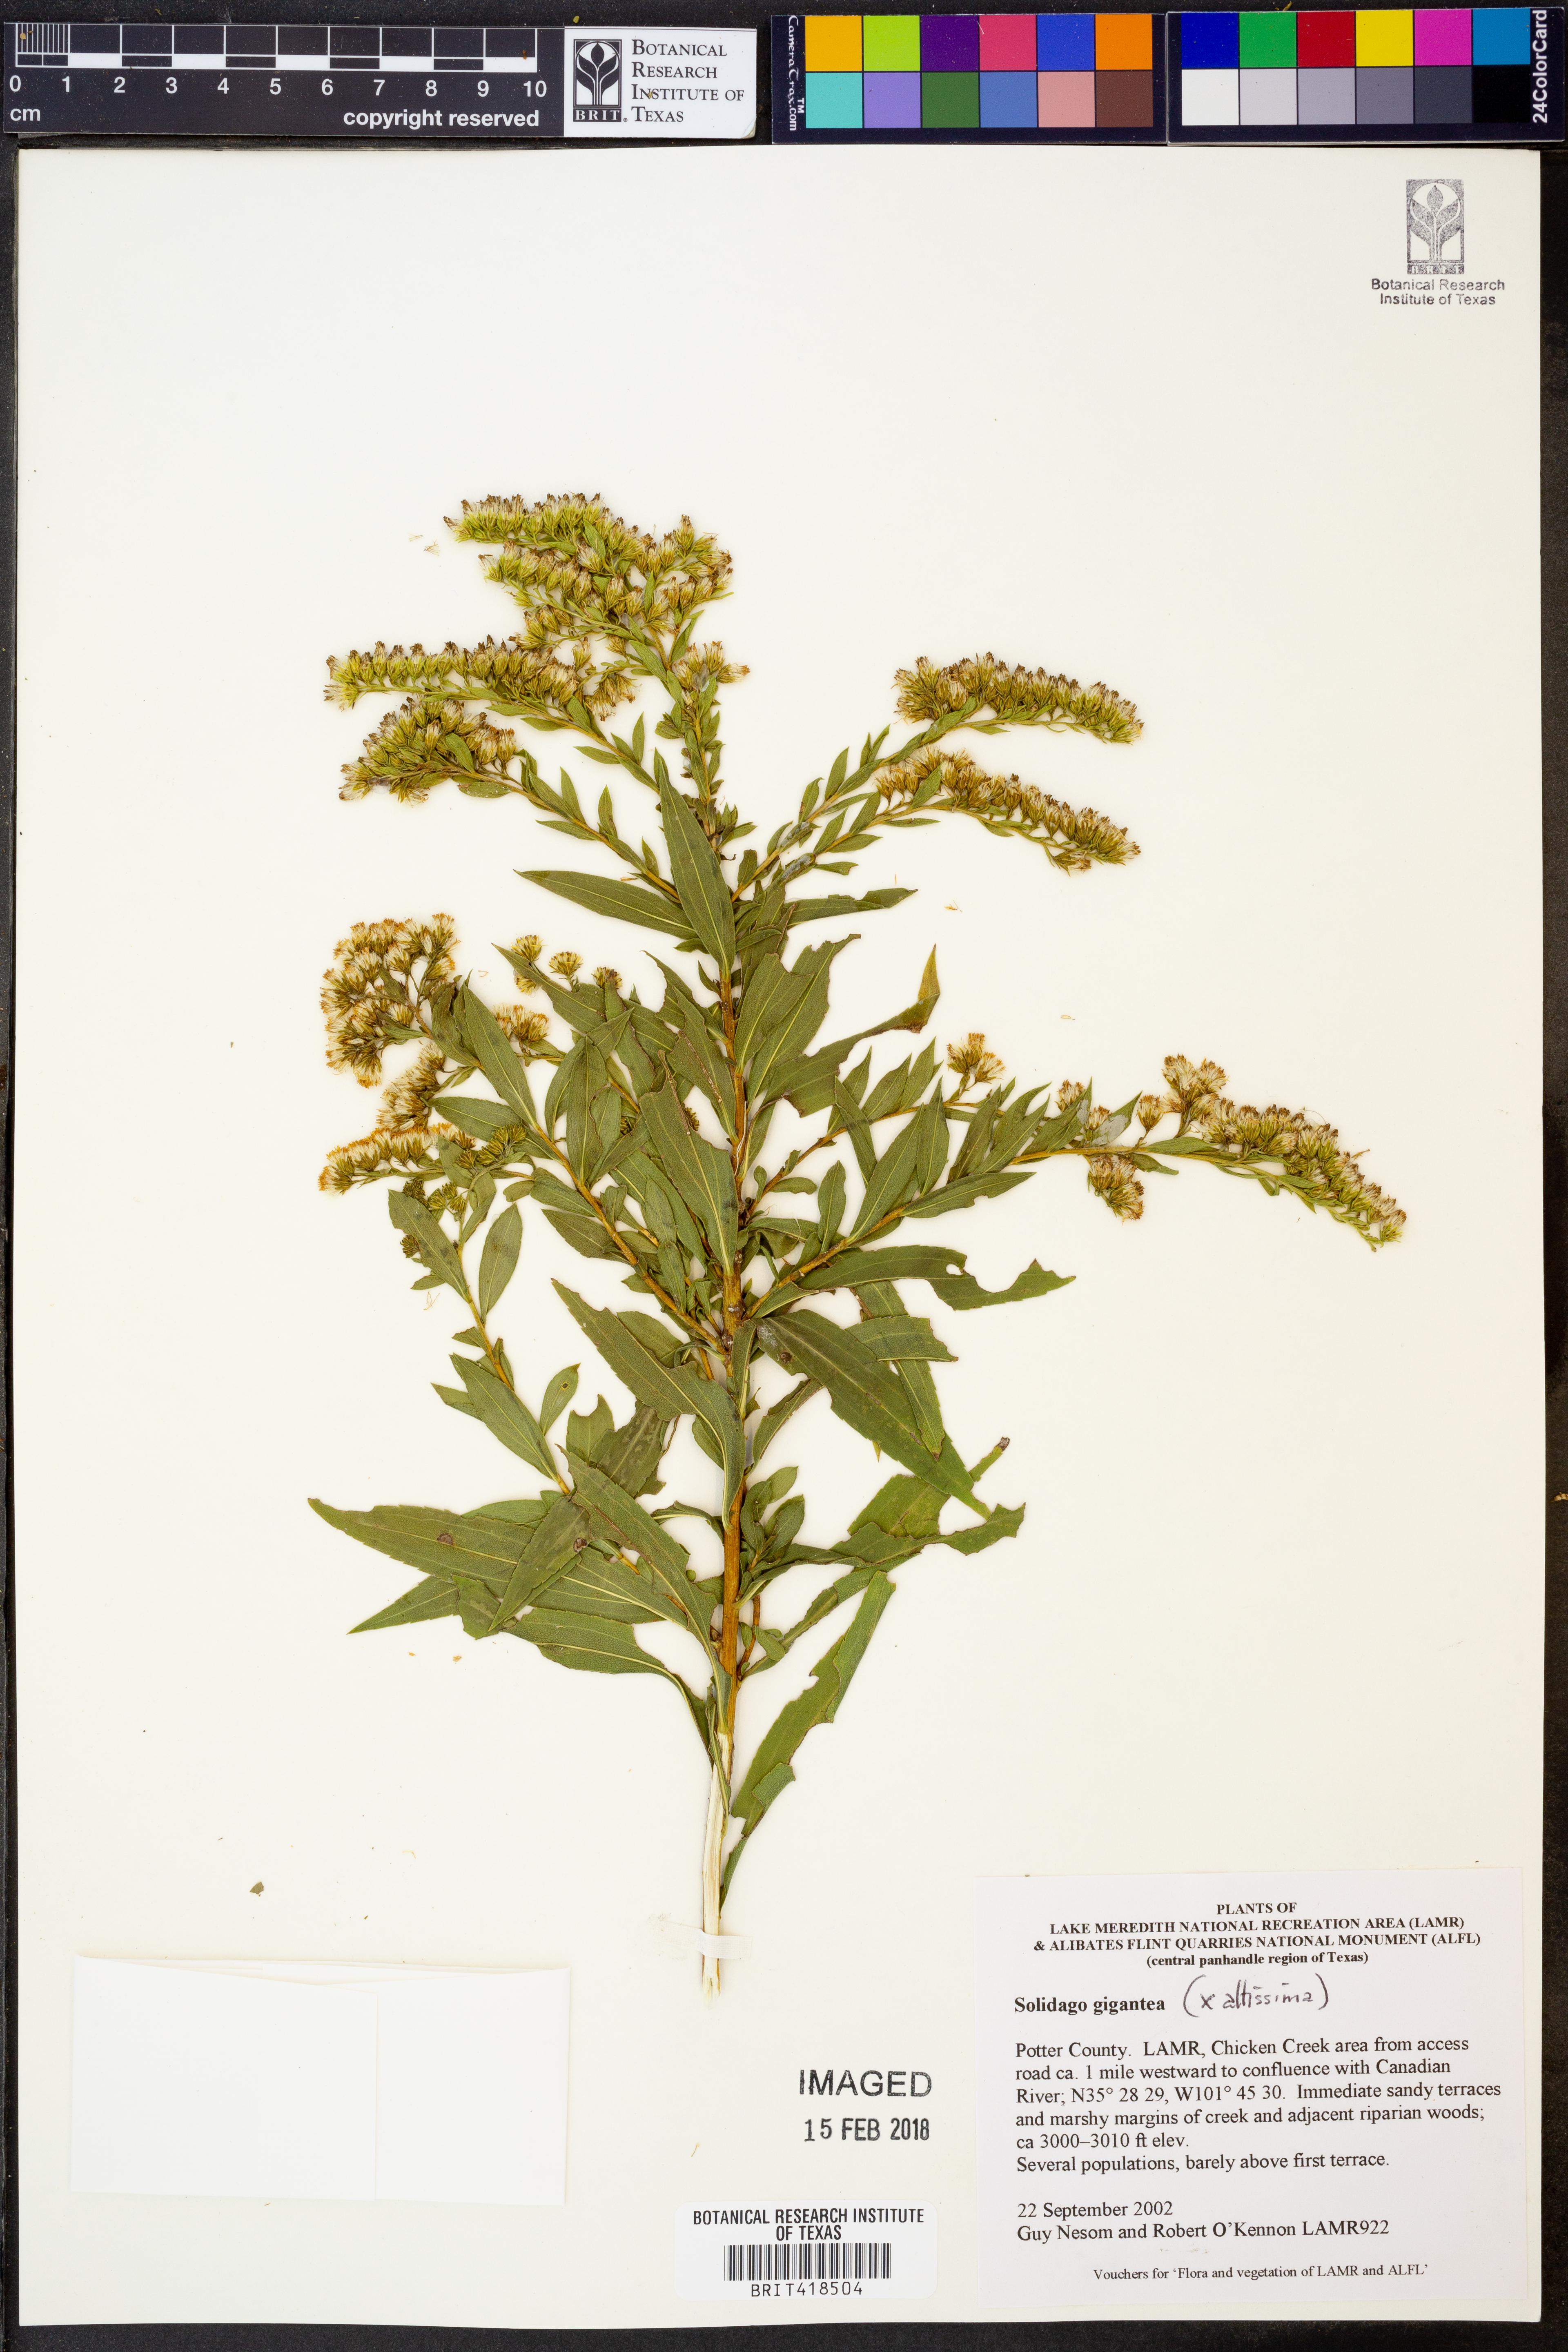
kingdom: Plantae
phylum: Tracheophyta
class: Magnoliopsida
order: Asterales
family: Asteraceae
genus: Solidago
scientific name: Solidago gigantea
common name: Giant goldenrod
